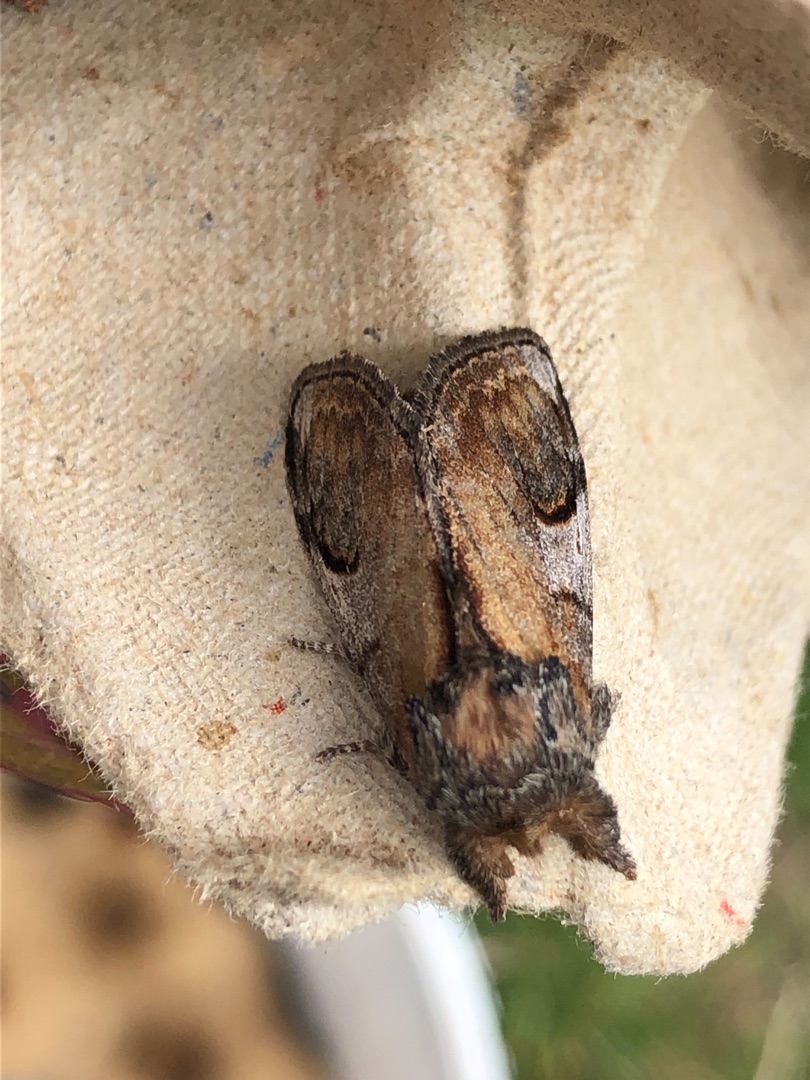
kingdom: Animalia
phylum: Arthropoda
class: Insecta
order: Lepidoptera
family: Notodontidae
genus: Notodonta
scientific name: Notodonta ziczac
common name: Zigzagspinder
